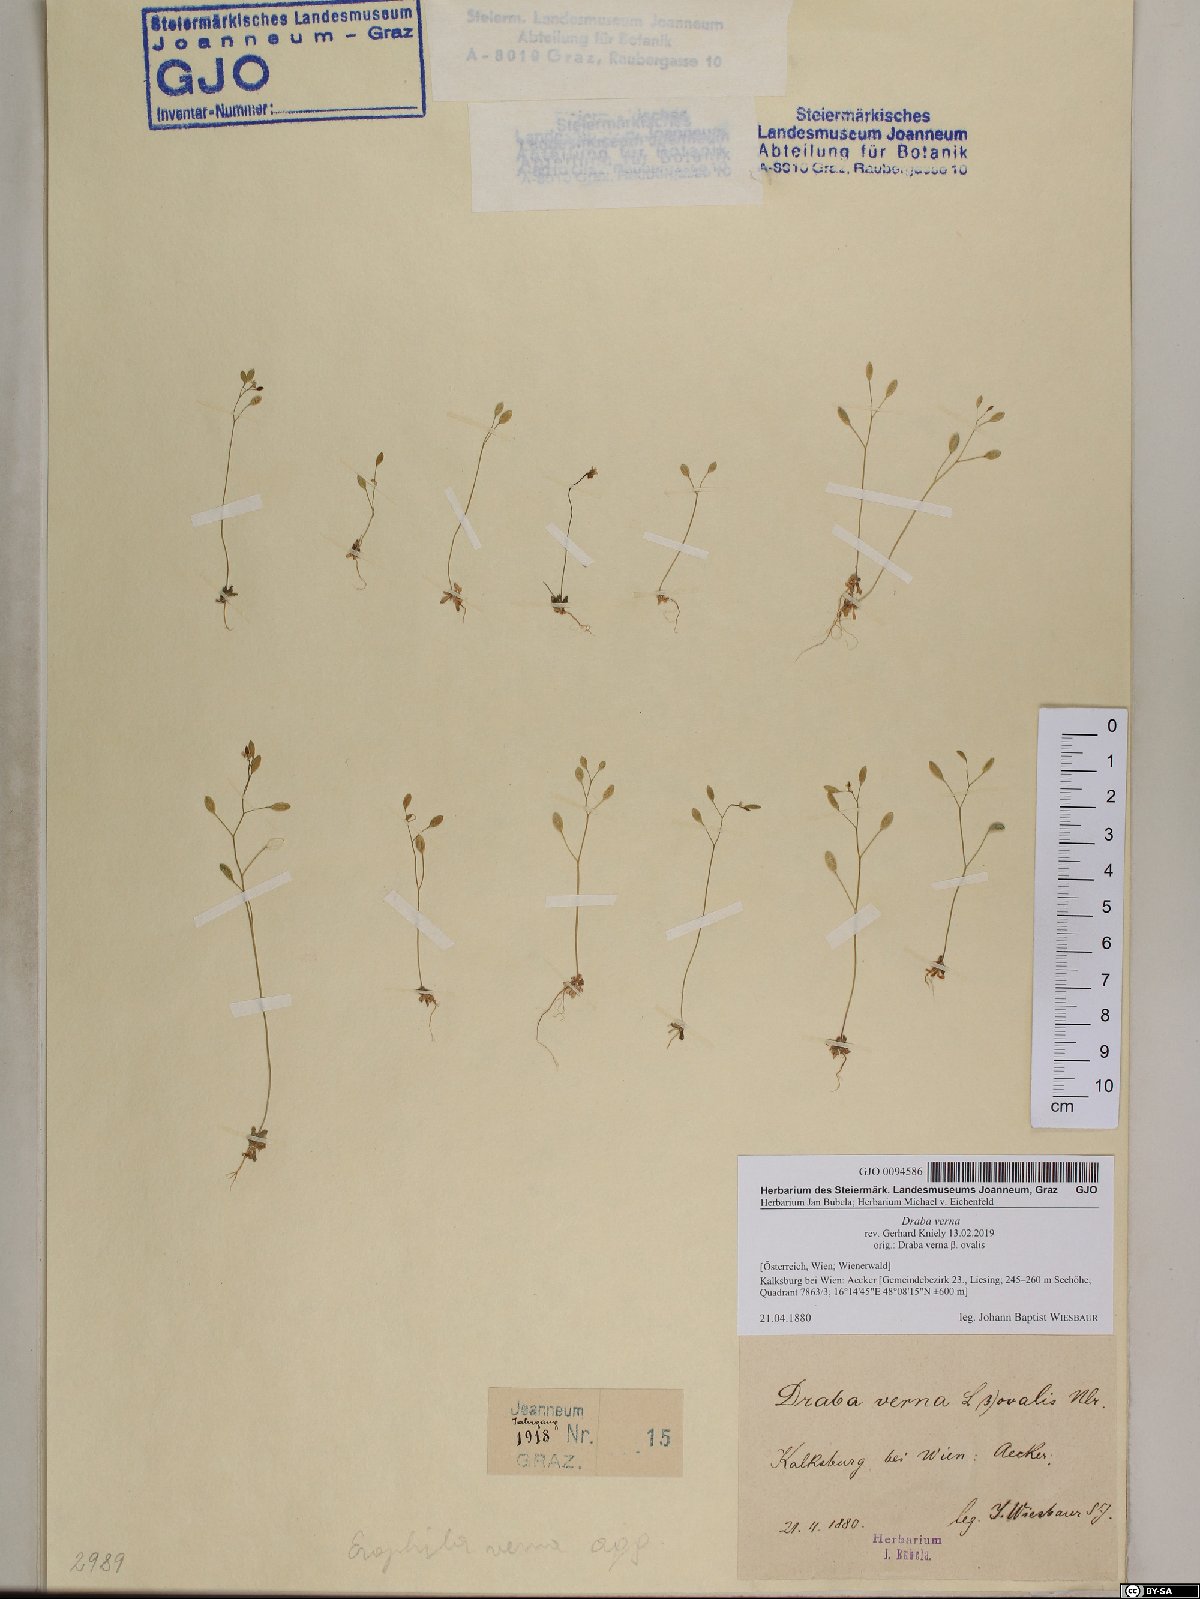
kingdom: Plantae
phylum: Tracheophyta
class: Magnoliopsida
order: Brassicales
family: Brassicaceae
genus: Draba
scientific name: Draba verna
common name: Spring draba
